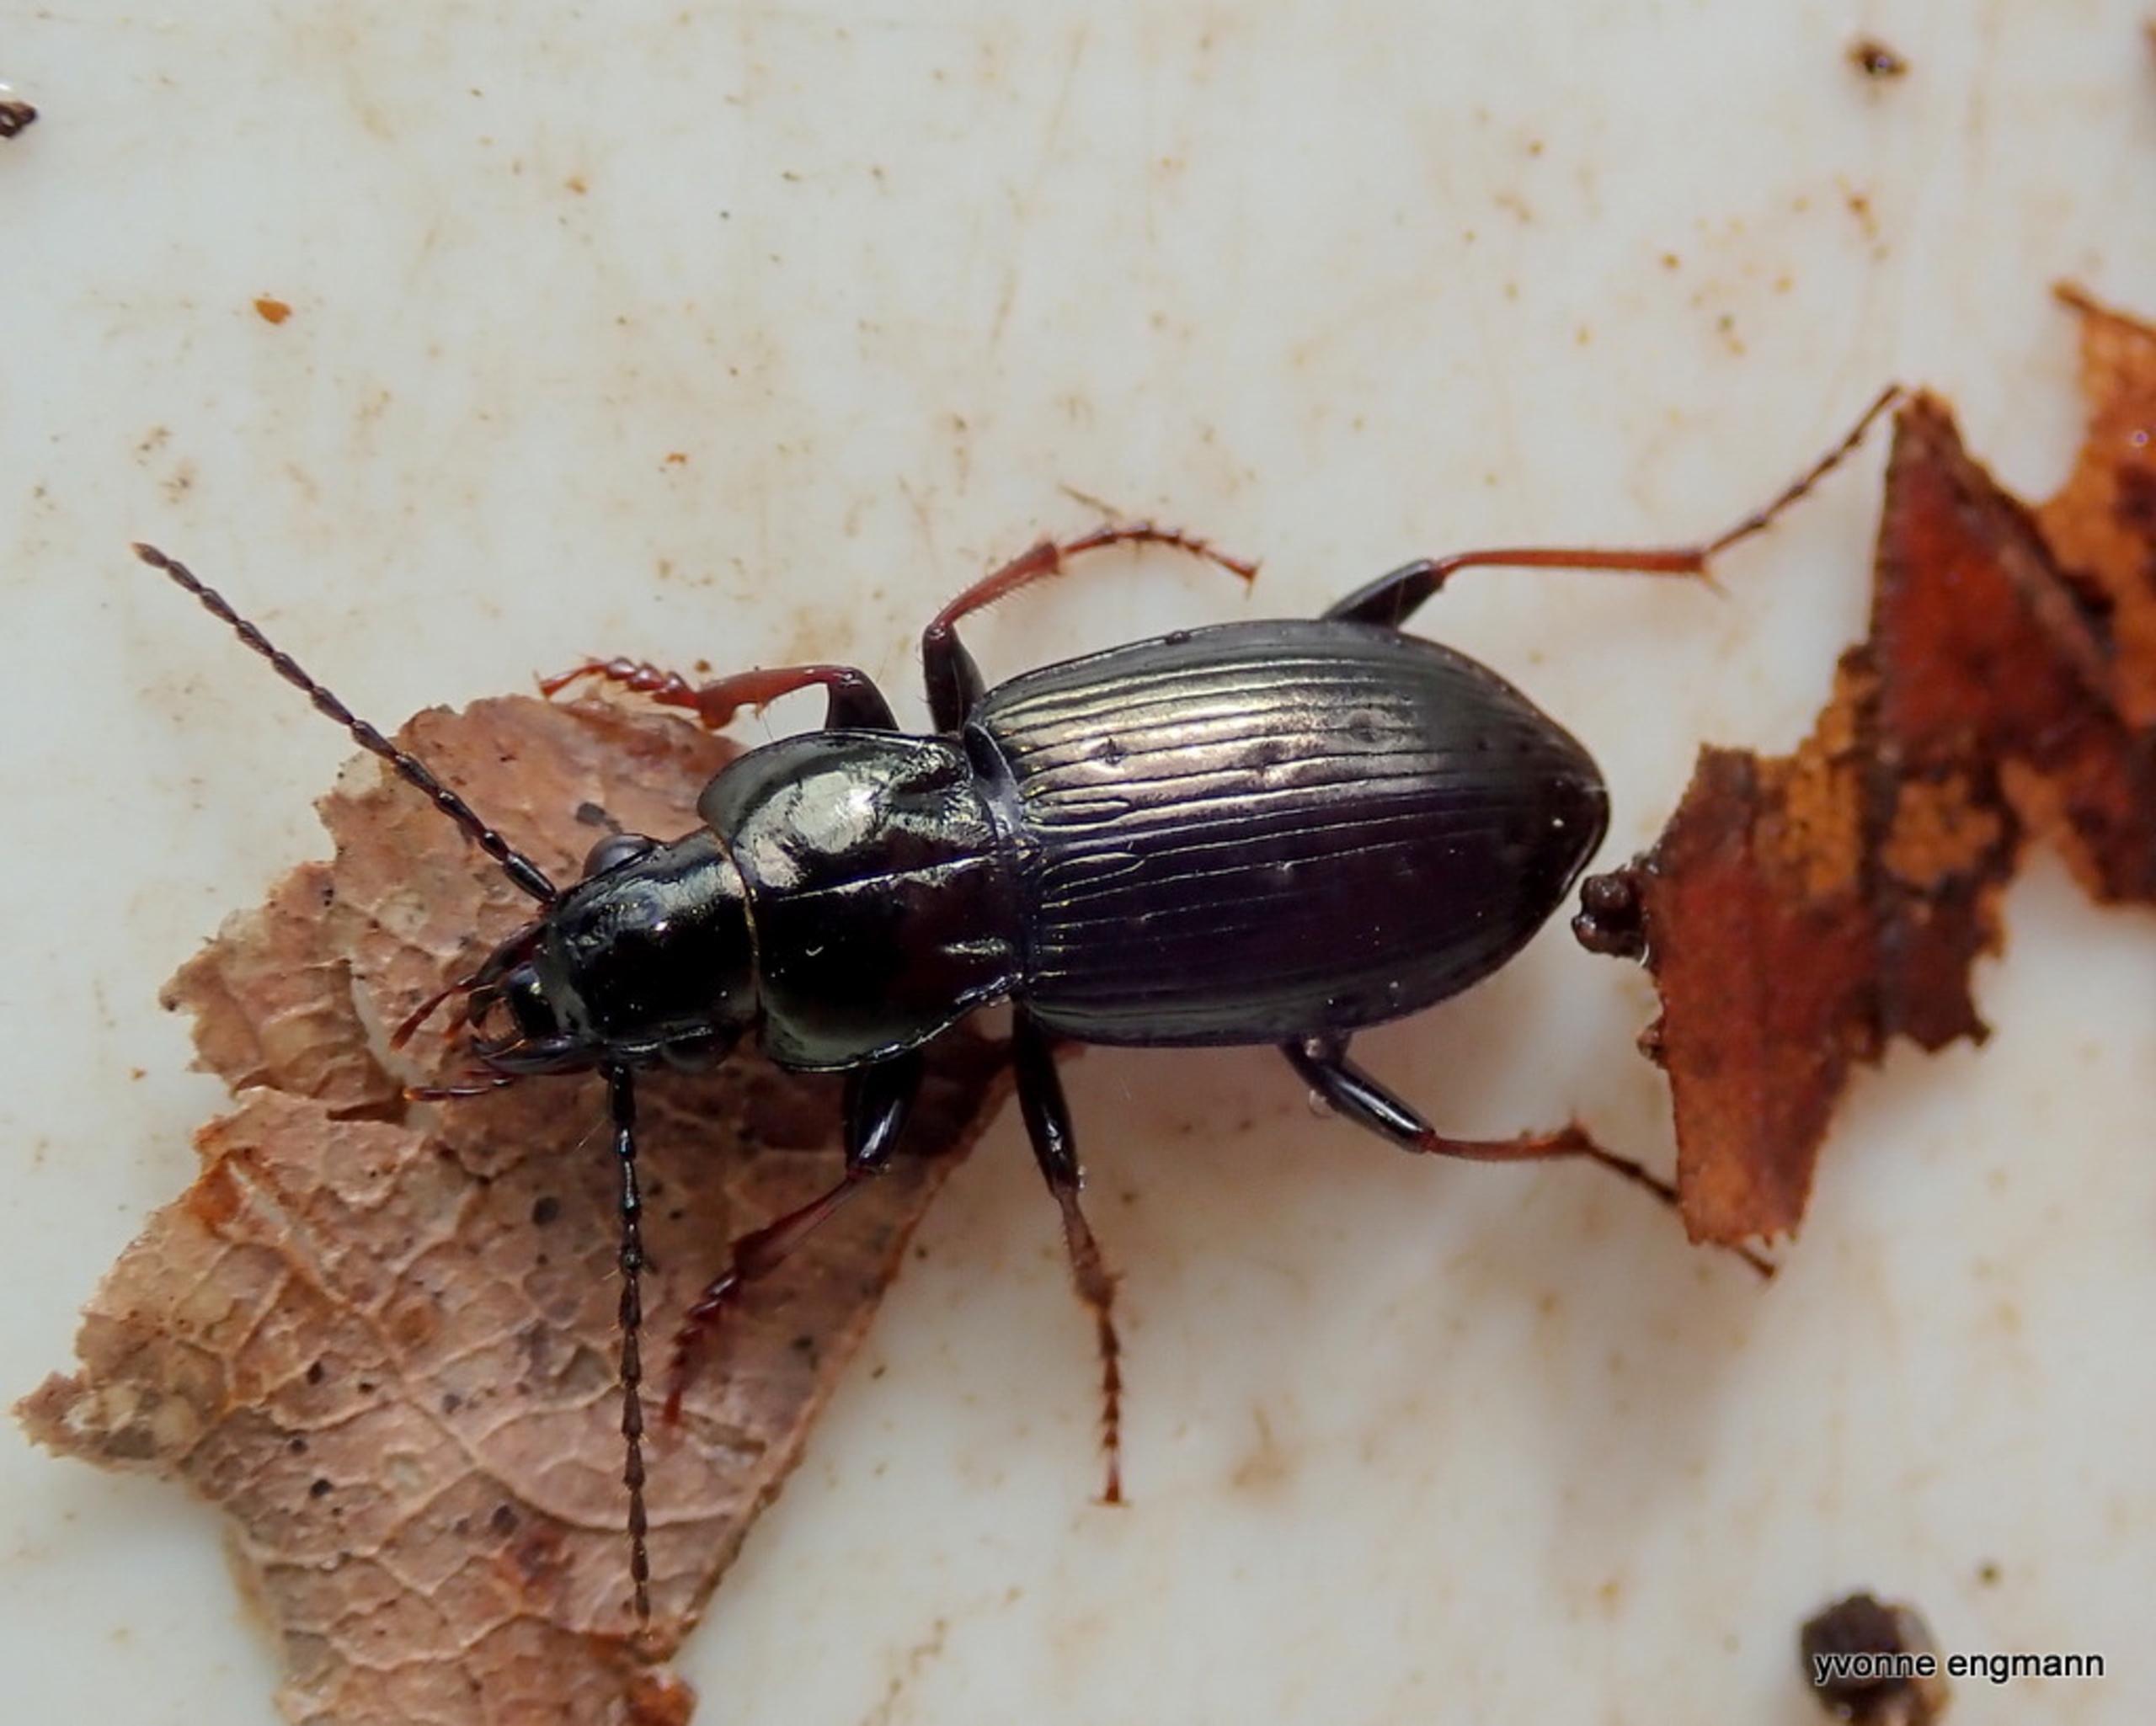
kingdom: Animalia
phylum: Arthropoda
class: Insecta
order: Coleoptera
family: Carabidae
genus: Pterostichus
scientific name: Pterostichus oblongopunctatus
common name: Bronzejordløber
